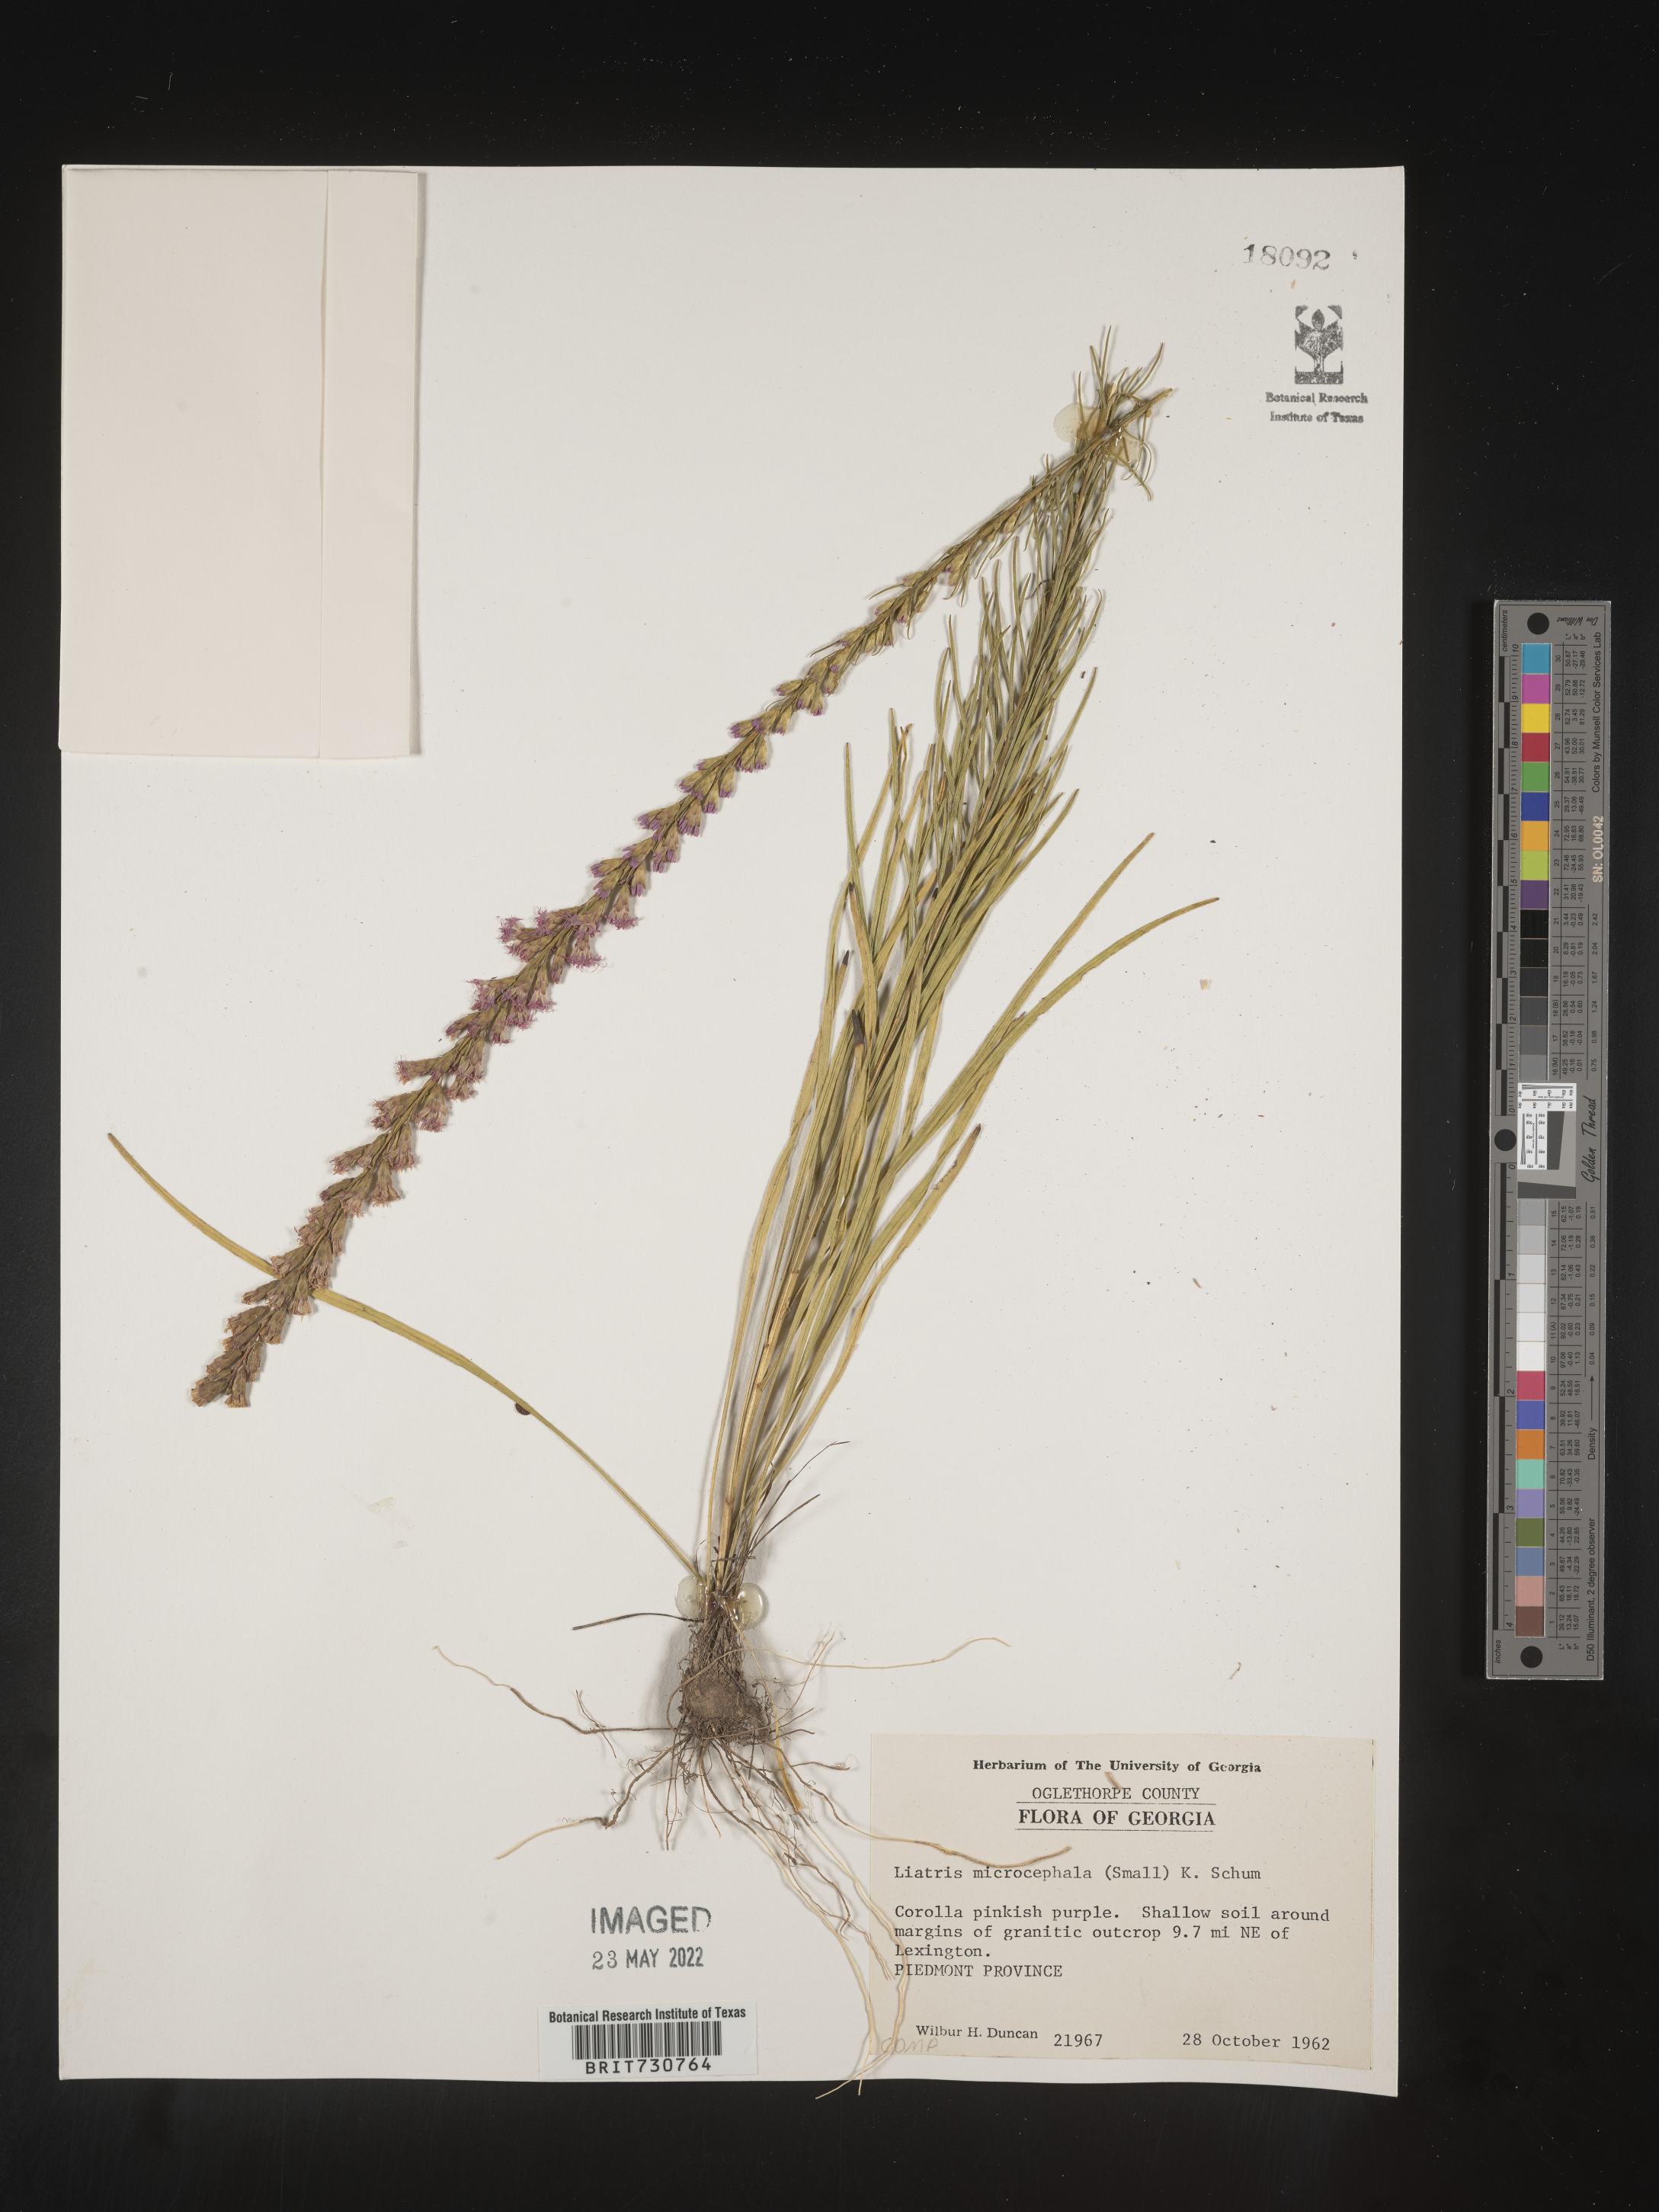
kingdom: Plantae
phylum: Tracheophyta
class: Magnoliopsida
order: Asterales
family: Asteraceae
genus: Liatris
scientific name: Liatris microcephala
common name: Small-head gayfeather
